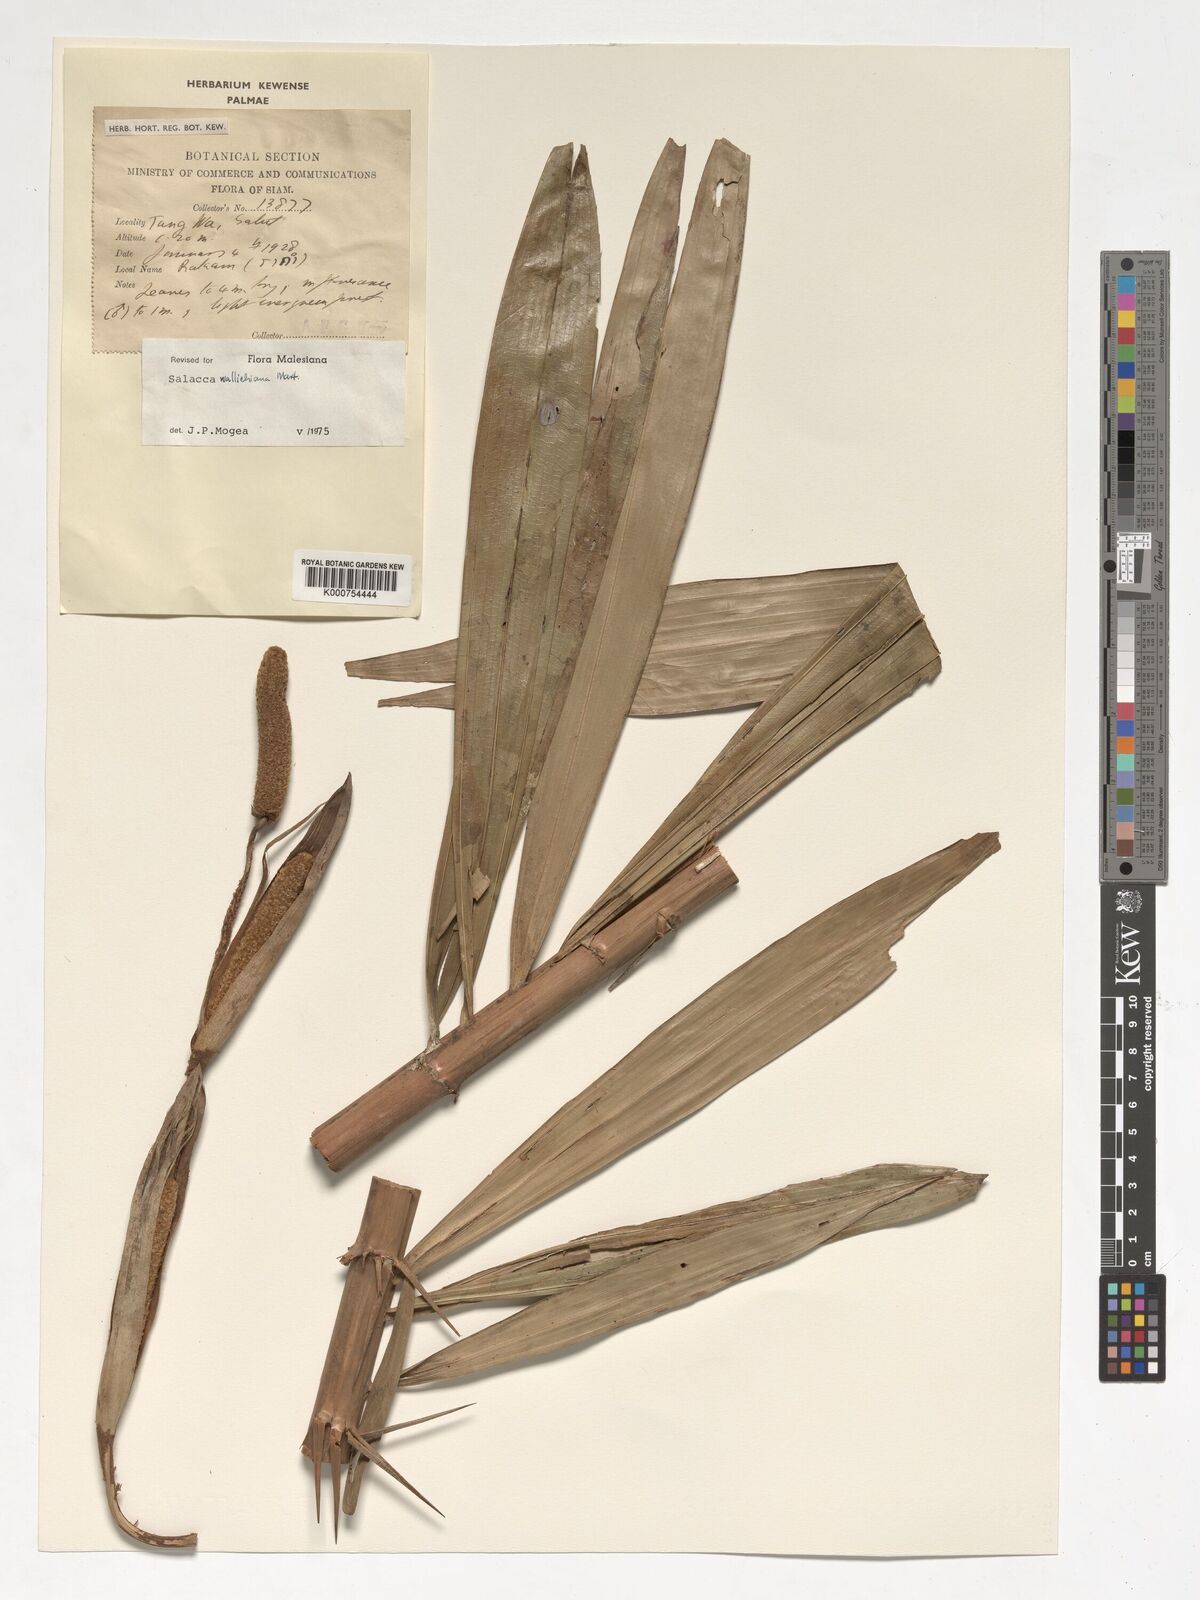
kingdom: Plantae
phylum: Tracheophyta
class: Liliopsida
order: Arecales
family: Arecaceae
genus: Salacca
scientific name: Salacca wallichiana
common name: Rakum palm
